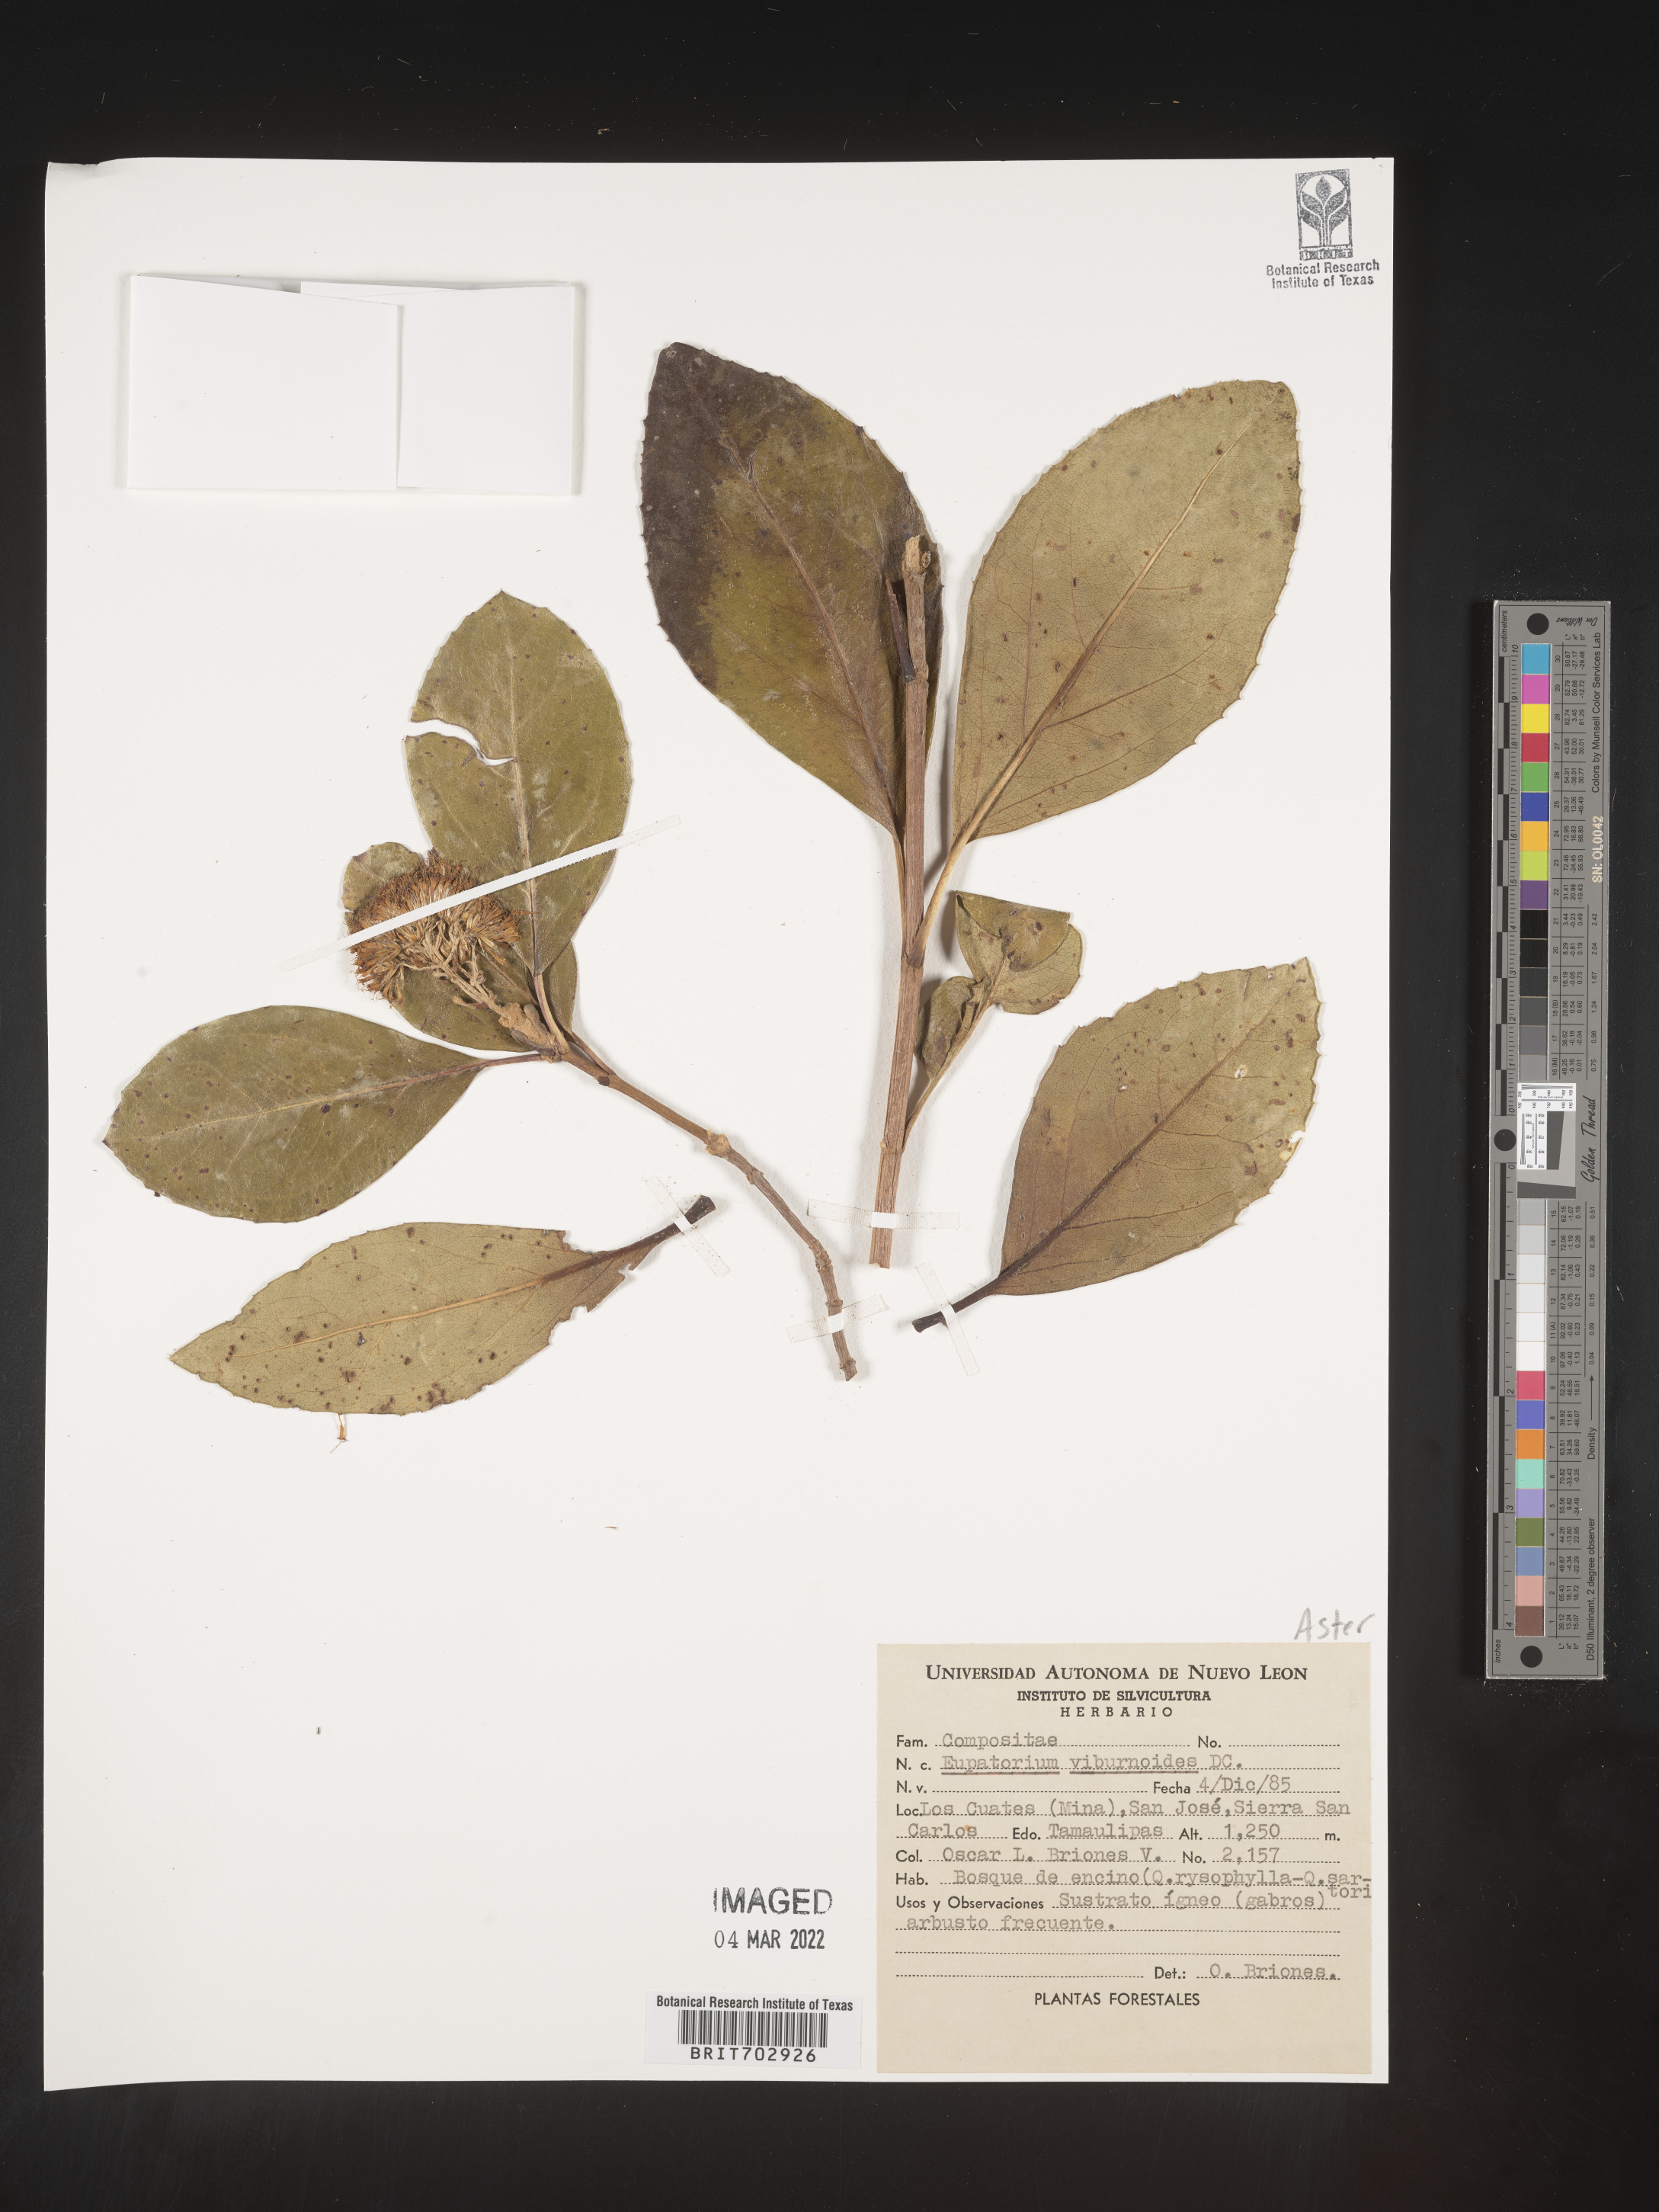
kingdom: Plantae
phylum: Tracheophyta
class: Magnoliopsida
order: Asterales
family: Asteraceae
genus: Eupatorium
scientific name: Eupatorium
